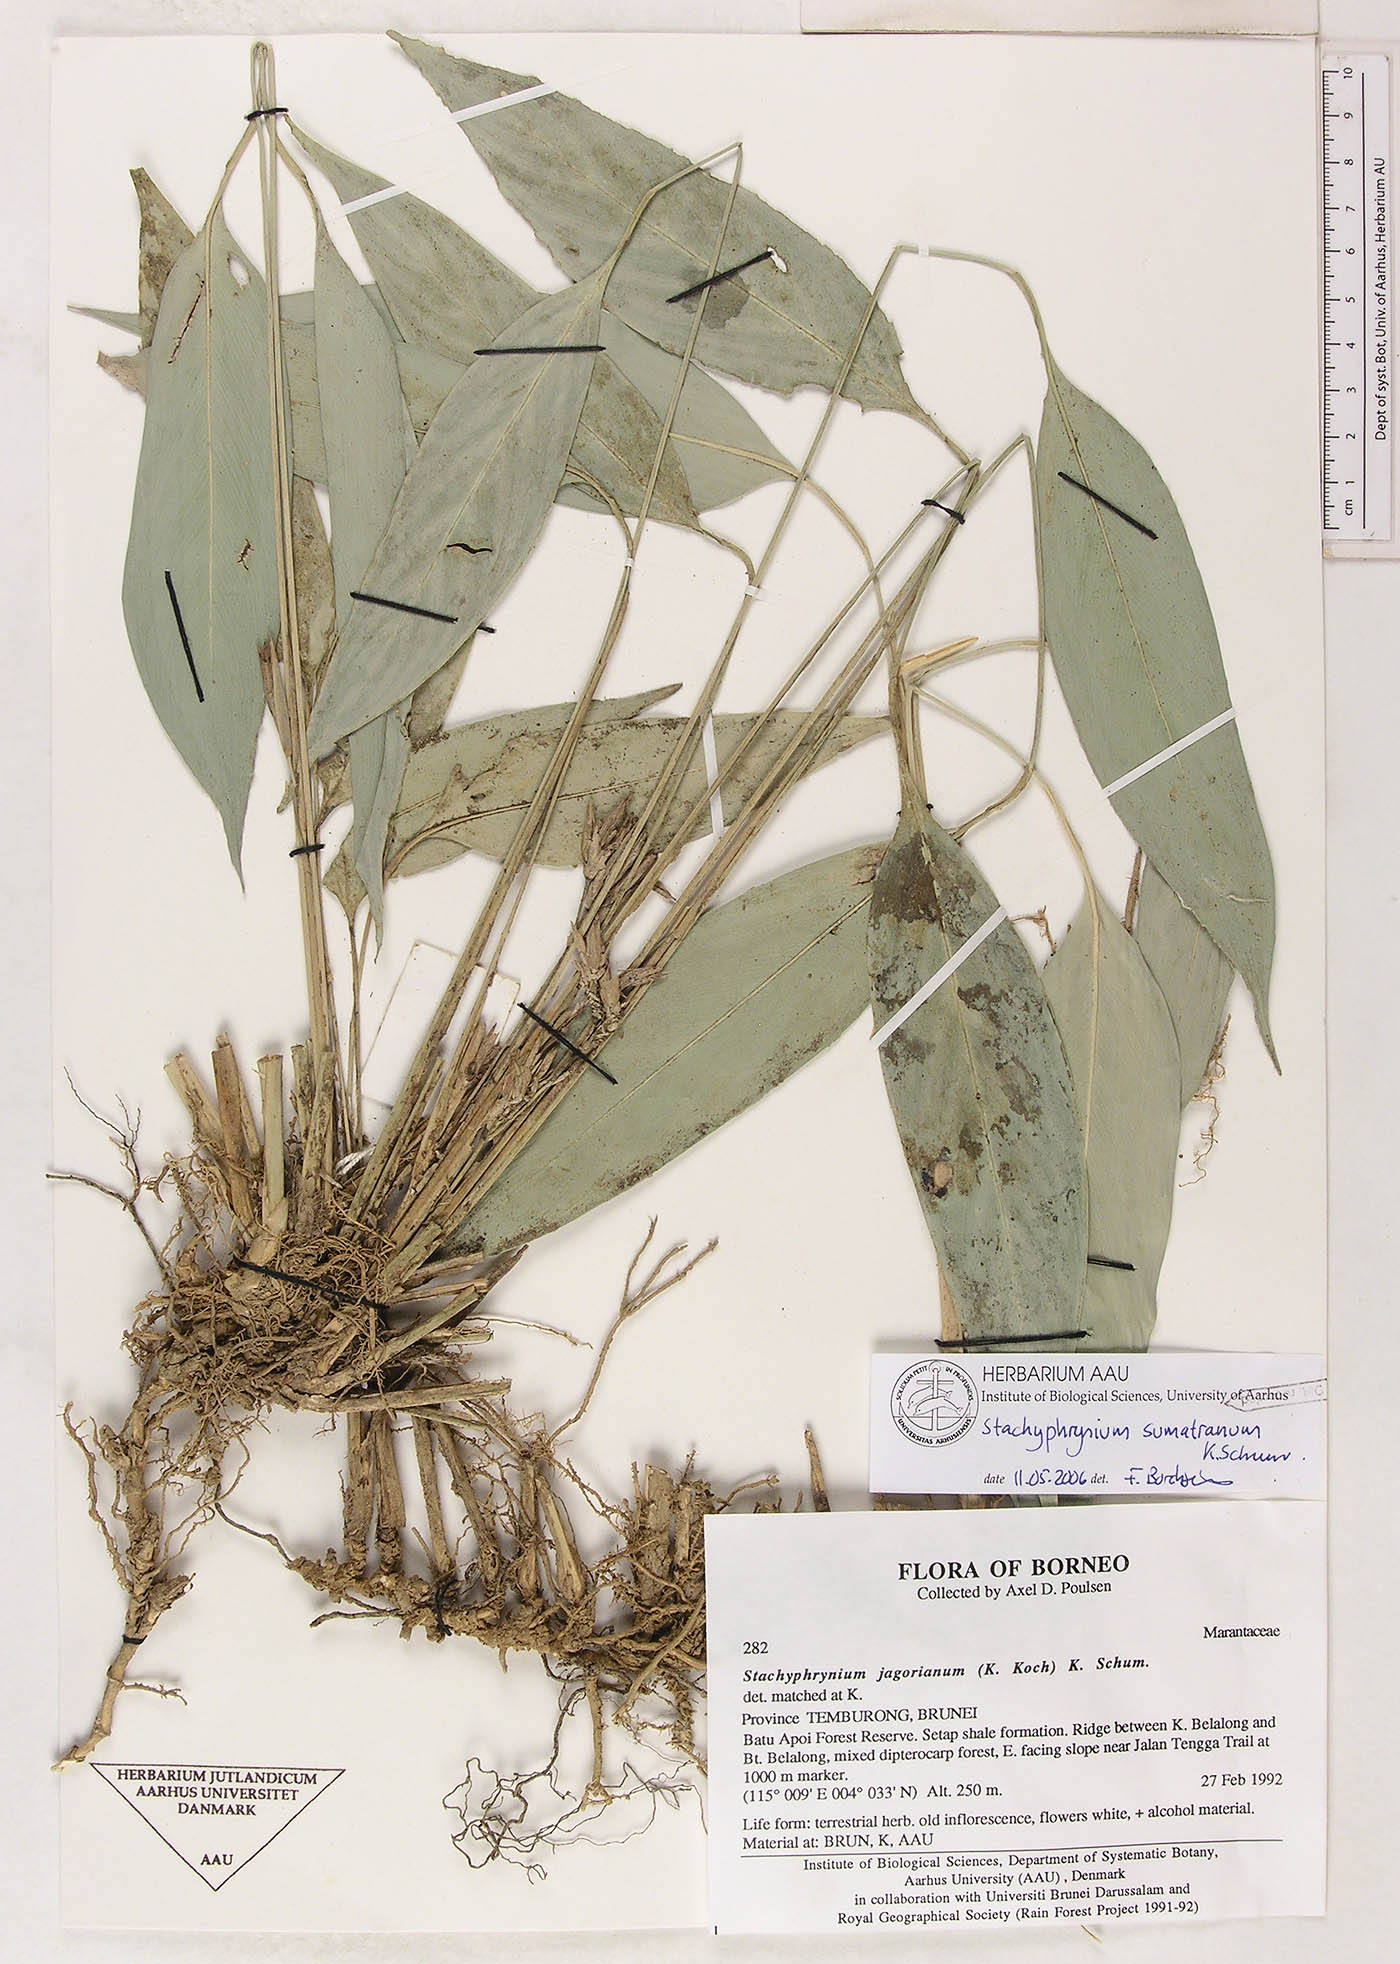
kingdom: Plantae
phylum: Tracheophyta
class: Liliopsida
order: Zingiberales
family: Marantaceae
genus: Stachyphrynium
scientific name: Stachyphrynium sumatranum
